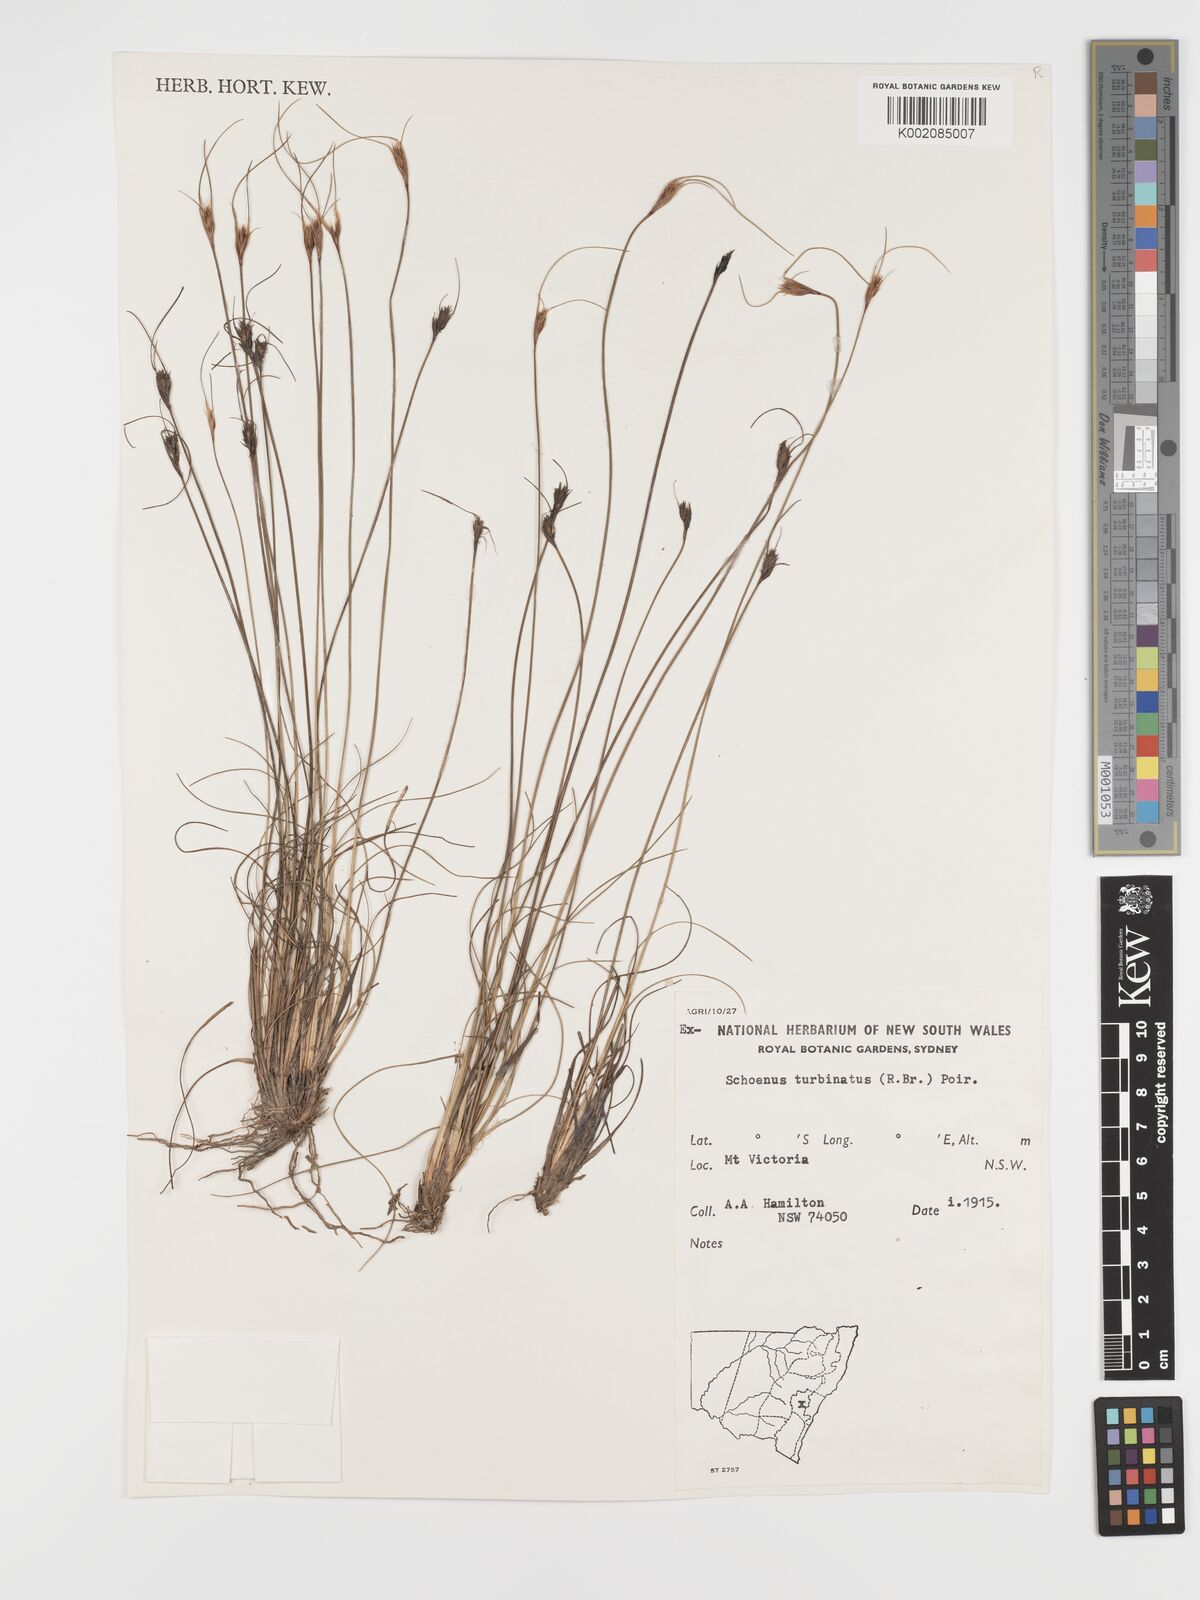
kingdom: Plantae
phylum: Tracheophyta
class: Liliopsida
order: Poales
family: Cyperaceae
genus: Schoenus
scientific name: Schoenus turbinatus
